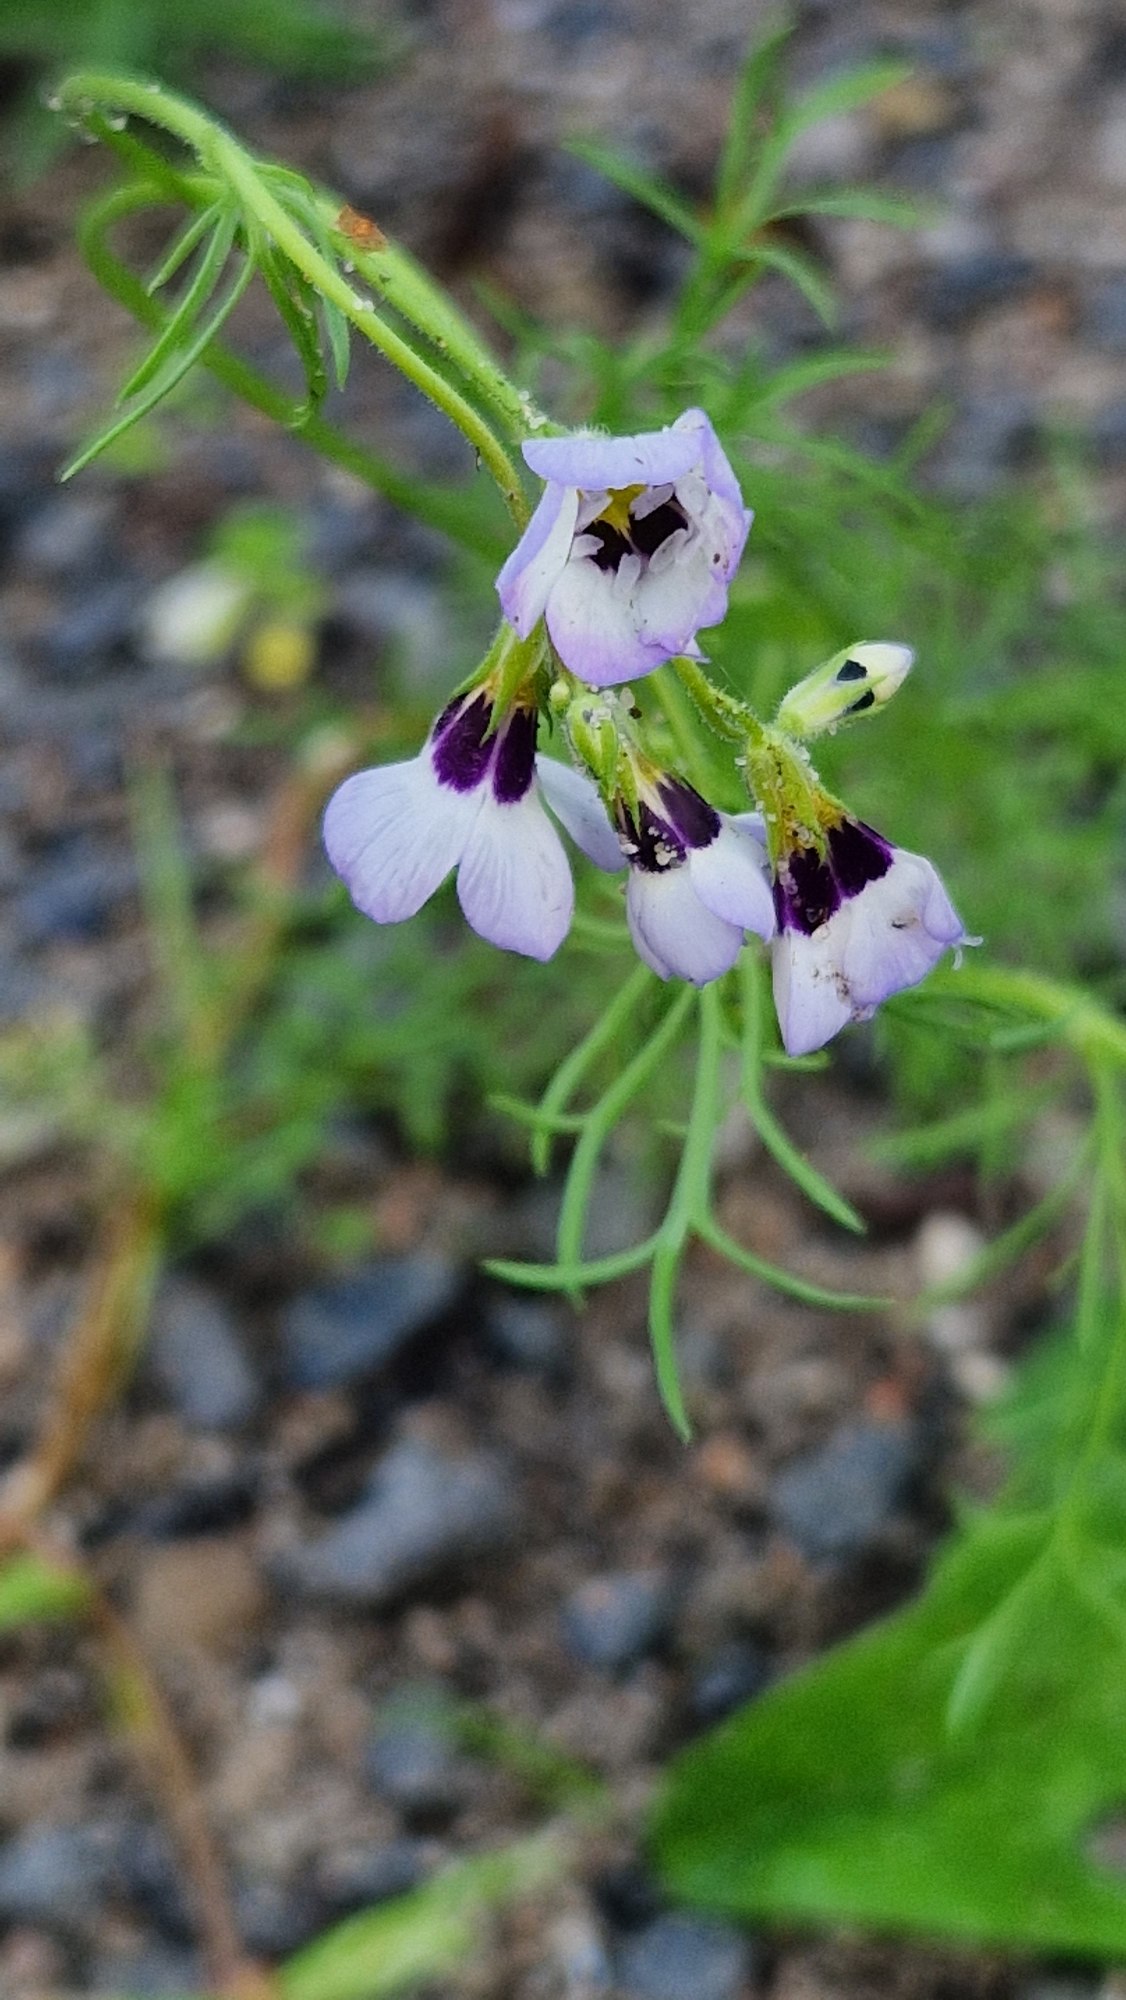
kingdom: Plantae
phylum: Tracheophyta
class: Magnoliopsida
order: Ericales
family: Polemoniaceae
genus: Gilia
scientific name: Gilia tricolor
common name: Trefarvet blåhoved
